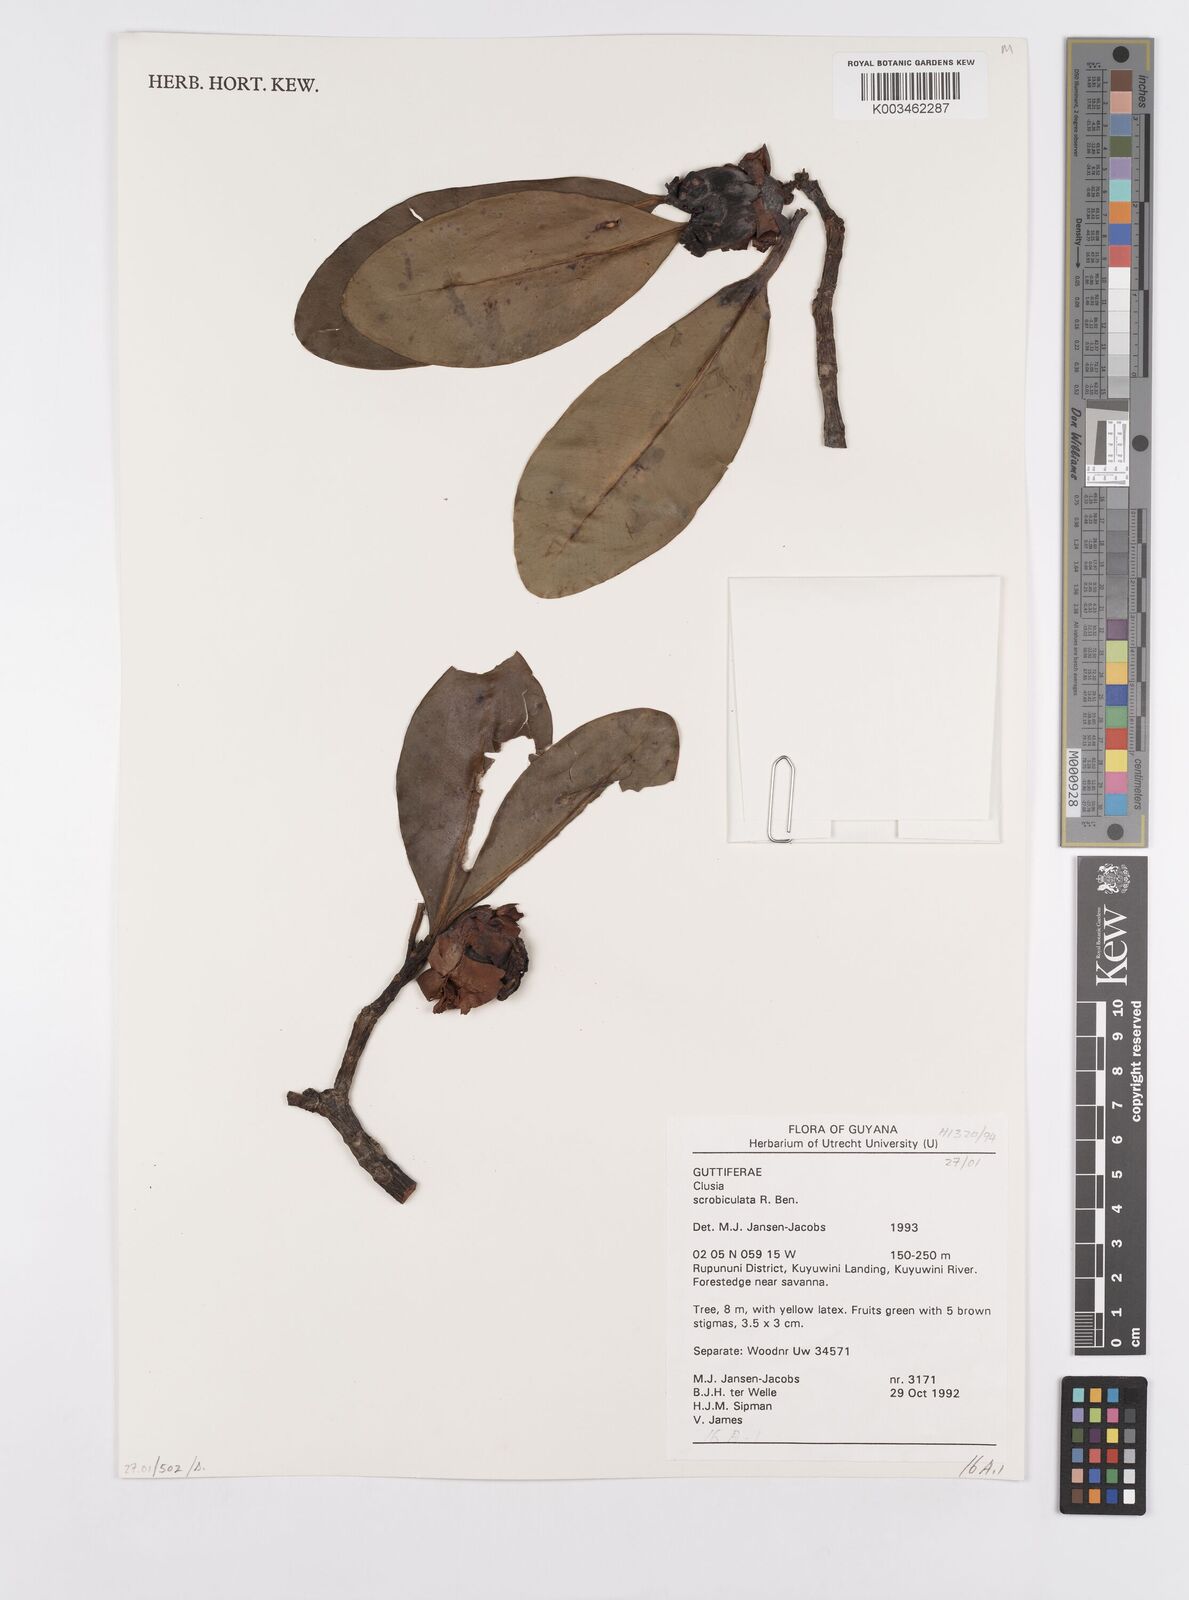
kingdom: Plantae
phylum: Tracheophyta
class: Magnoliopsida
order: Malpighiales
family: Clusiaceae
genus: Clusia
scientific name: Clusia scrobiculata
